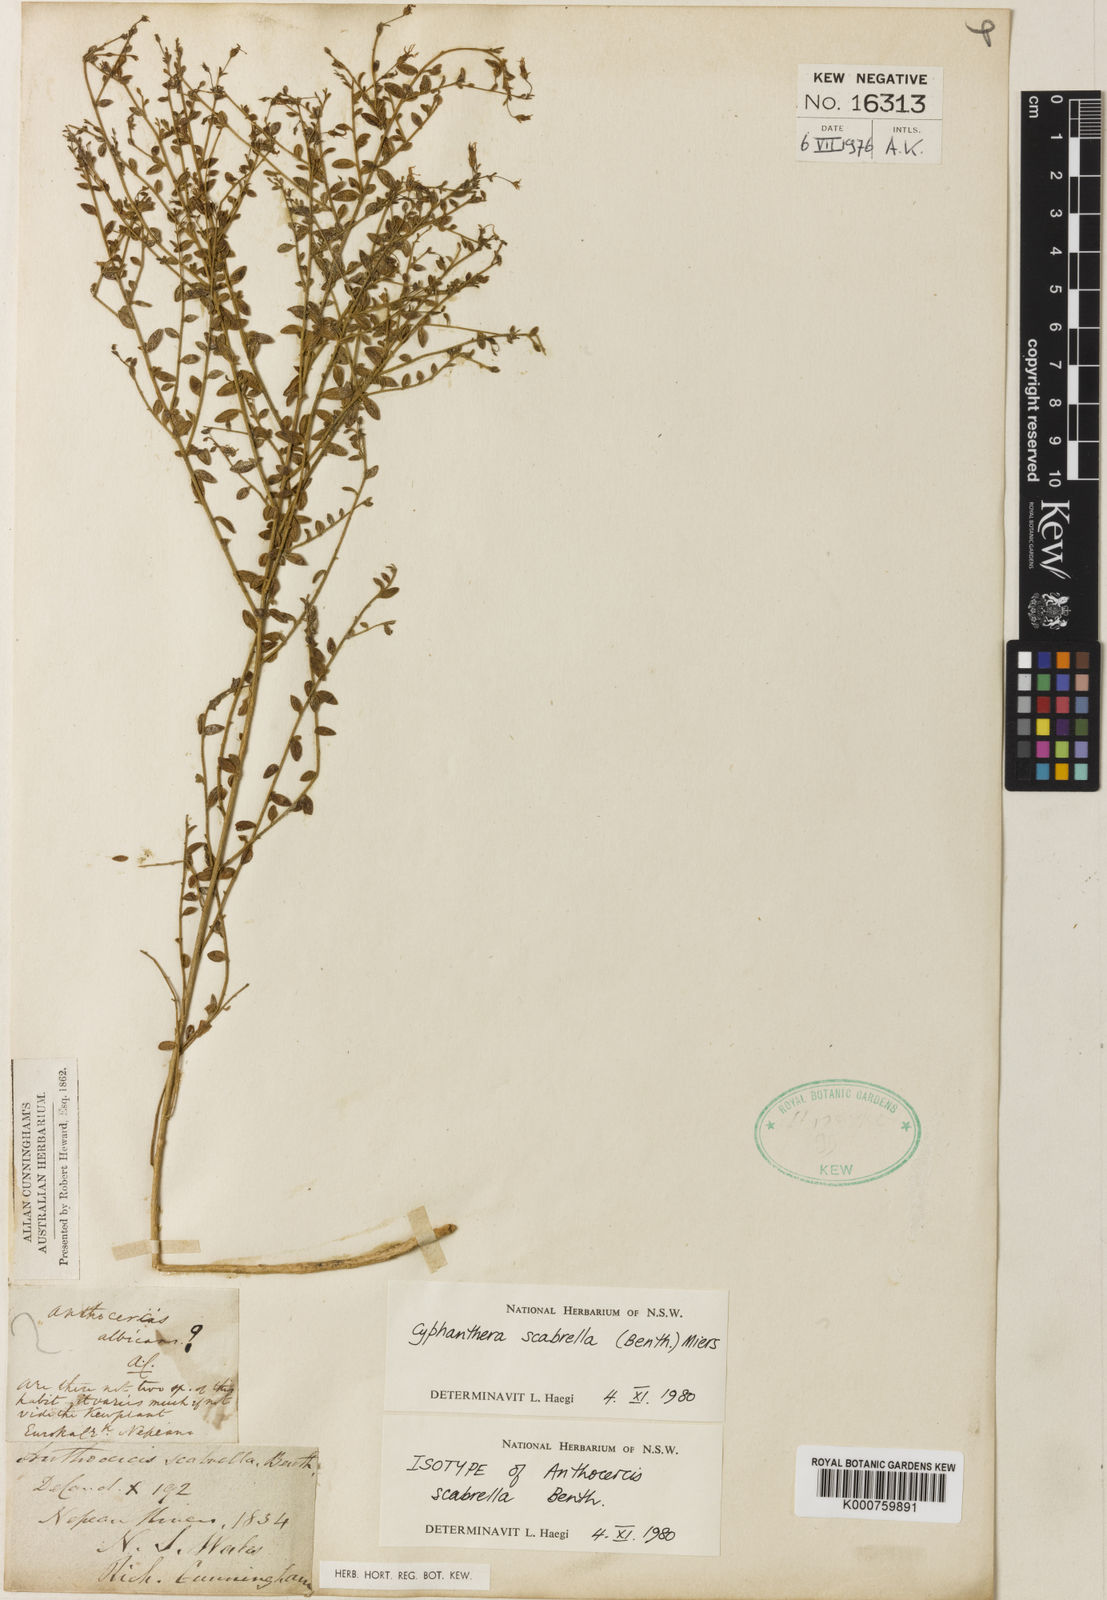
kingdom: Plantae
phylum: Tracheophyta
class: Magnoliopsida
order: Solanales
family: Solanaceae
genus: Cyphanthera
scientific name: Cyphanthera scabrella
